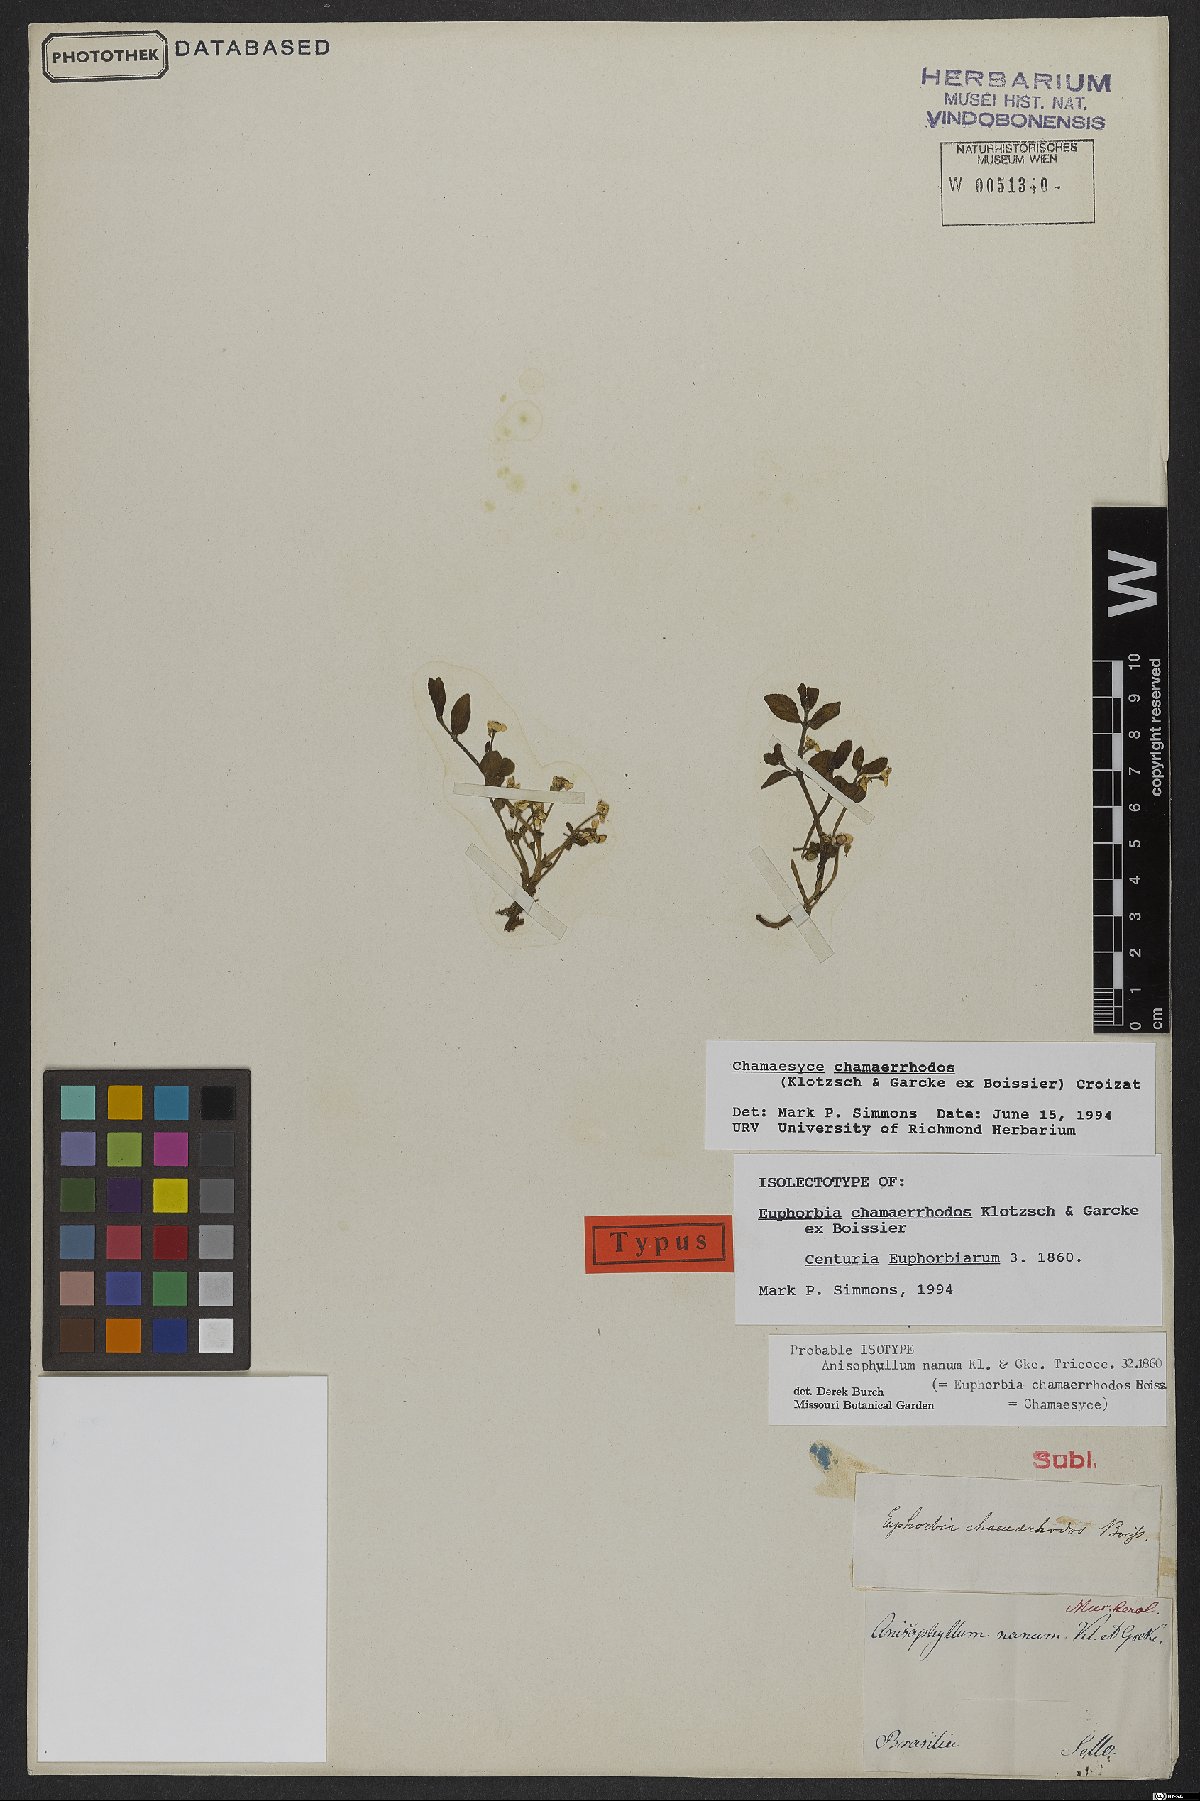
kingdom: Plantae
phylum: Tracheophyta
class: Magnoliopsida
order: Malpighiales
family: Euphorbiaceae
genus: Euphorbia
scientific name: Euphorbia chamaerrhodos
